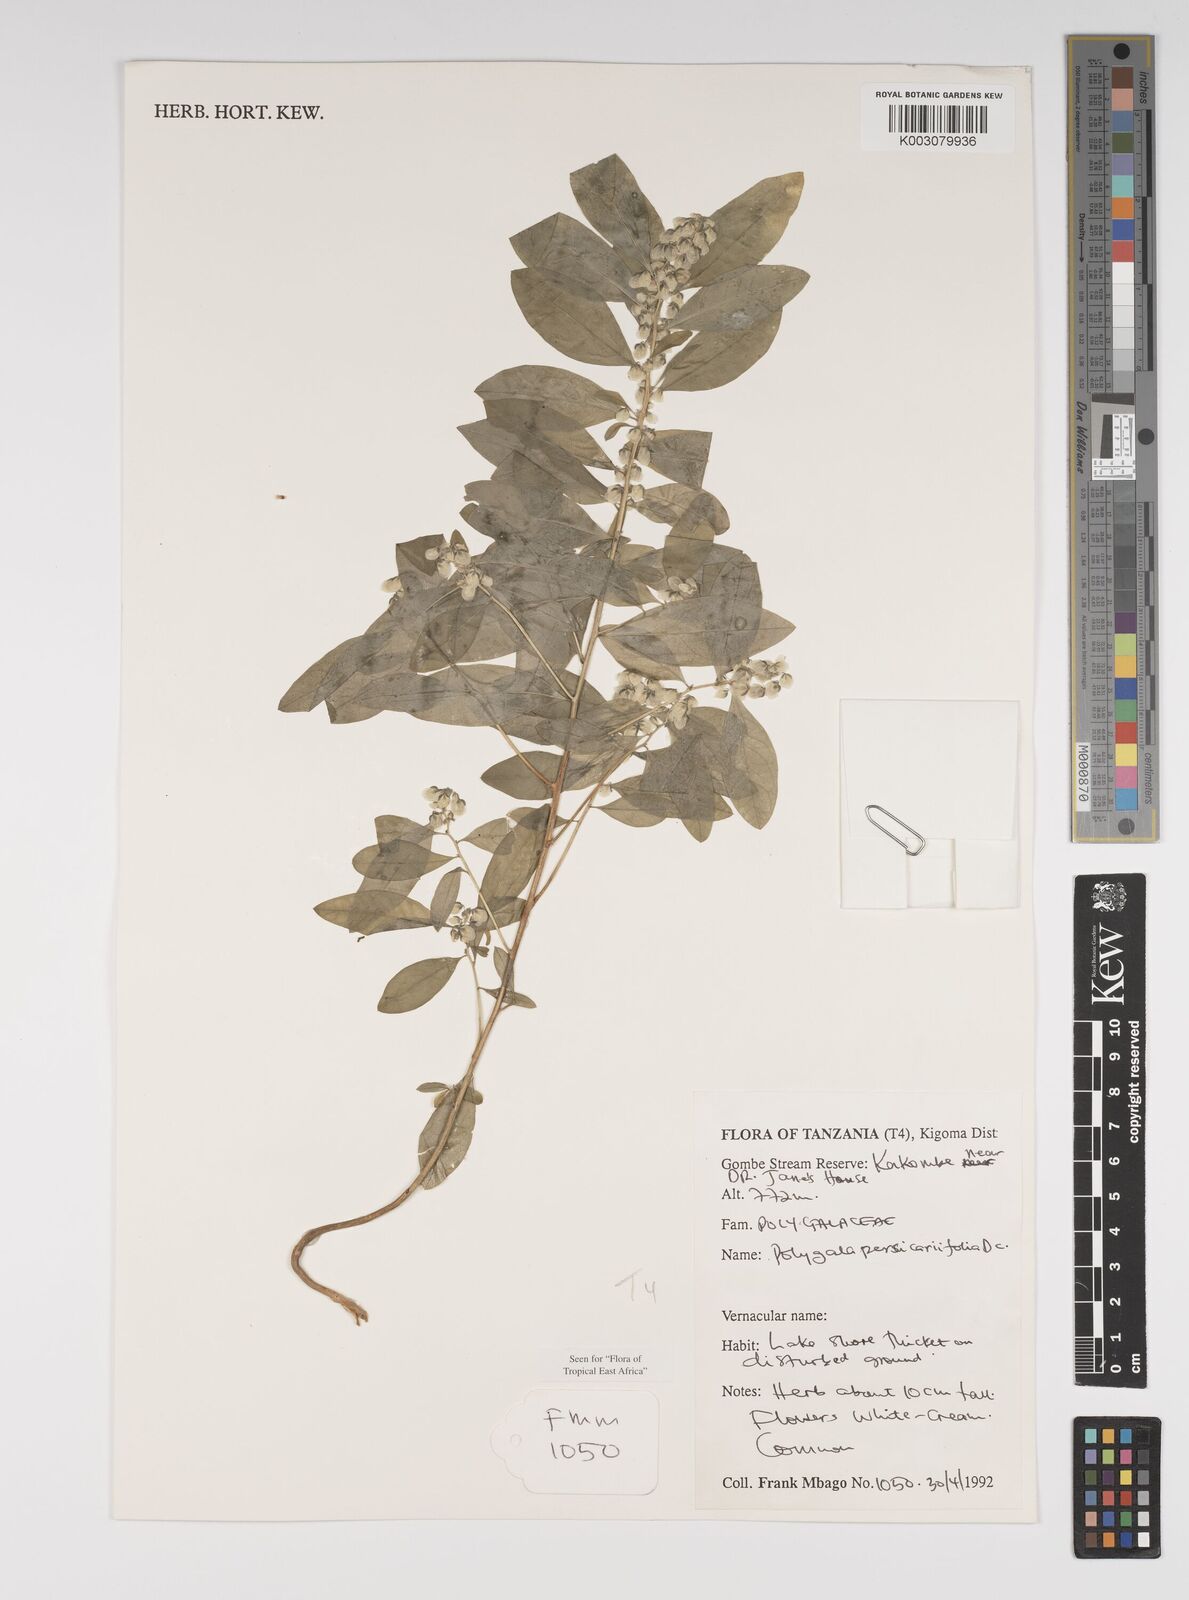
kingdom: Plantae
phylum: Tracheophyta
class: Magnoliopsida
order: Fabales
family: Polygalaceae
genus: Polygala
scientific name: Polygala persicariifolia
